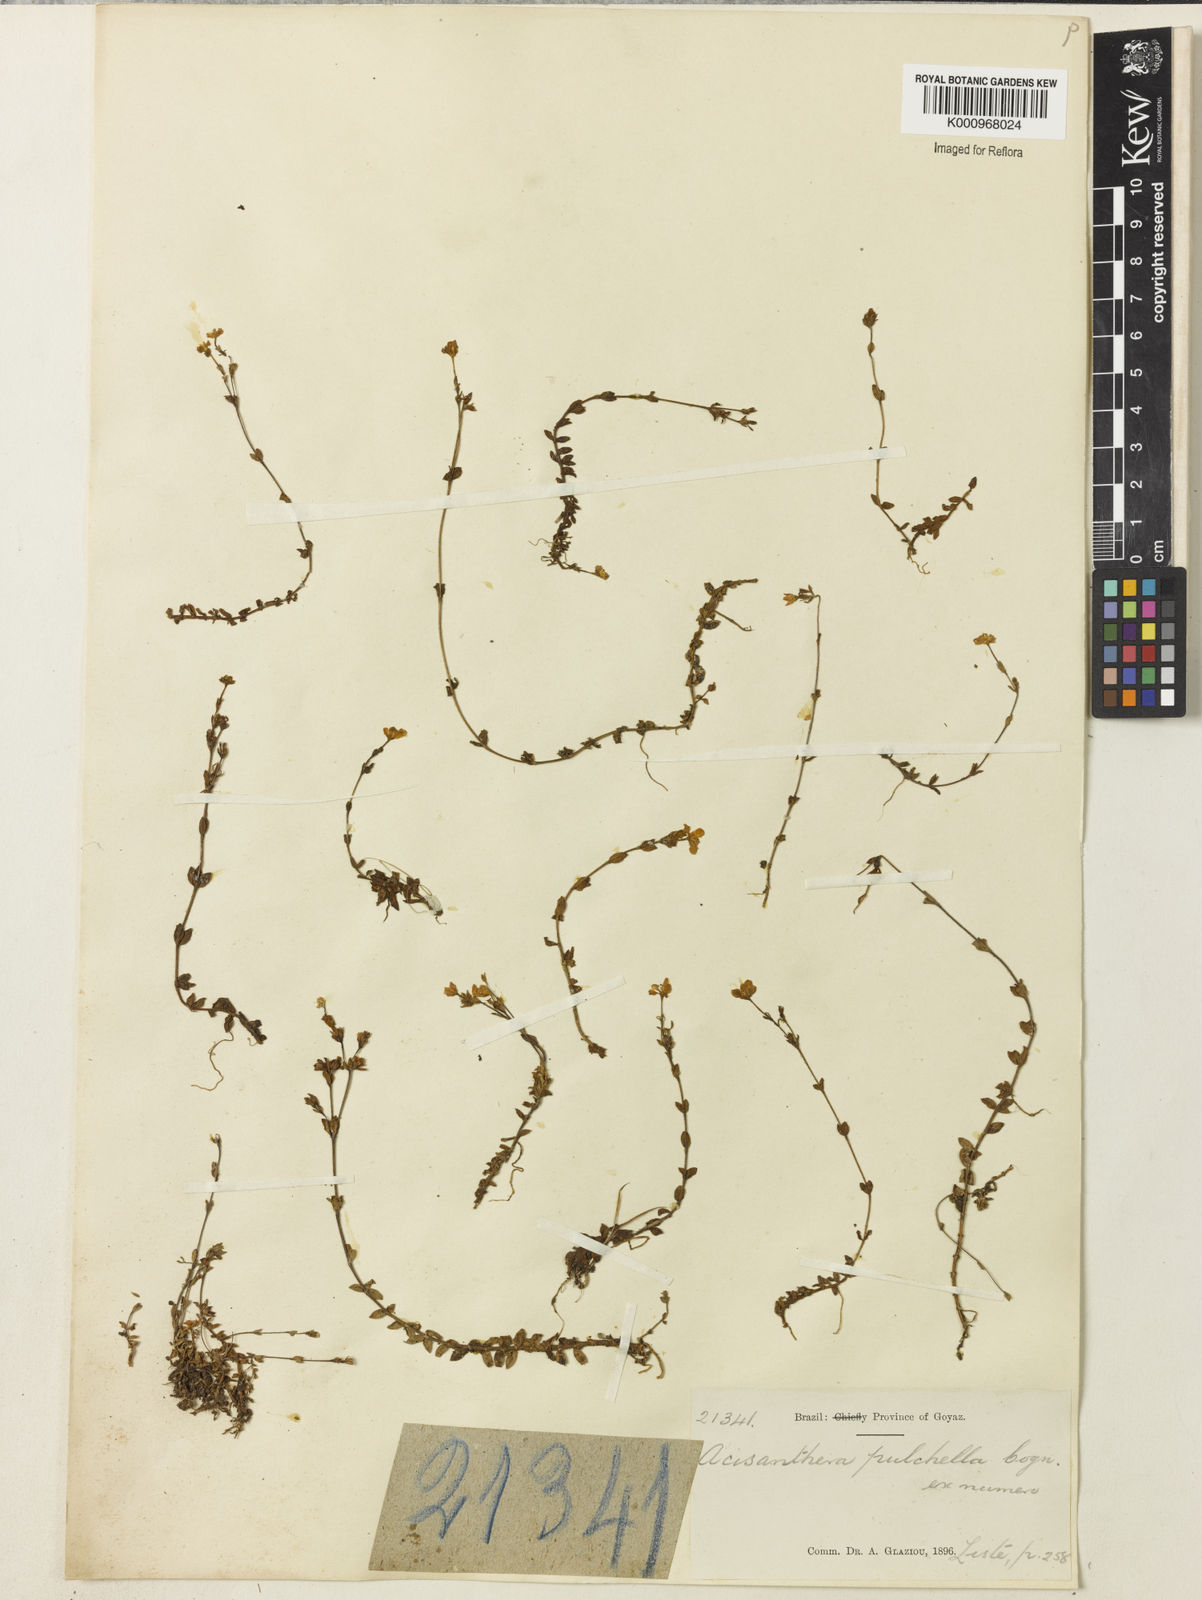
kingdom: Plantae
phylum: Tracheophyta
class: Magnoliopsida
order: Myrtales
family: Melastomataceae
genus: Acisanthera
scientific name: Acisanthera pulchella
